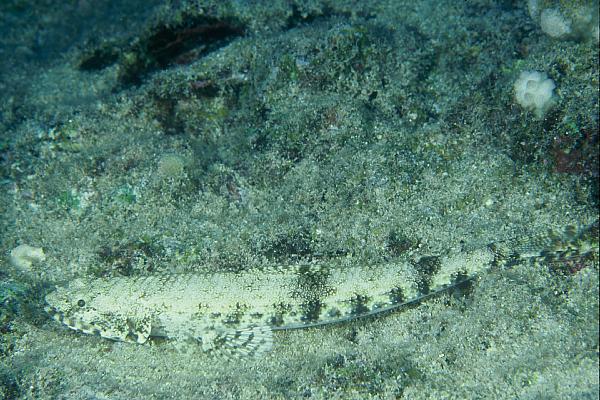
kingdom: Animalia
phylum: Chordata
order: Aulopiformes
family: Synodontidae
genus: Saurida
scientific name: Saurida gracilis
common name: Slender lizardfish
